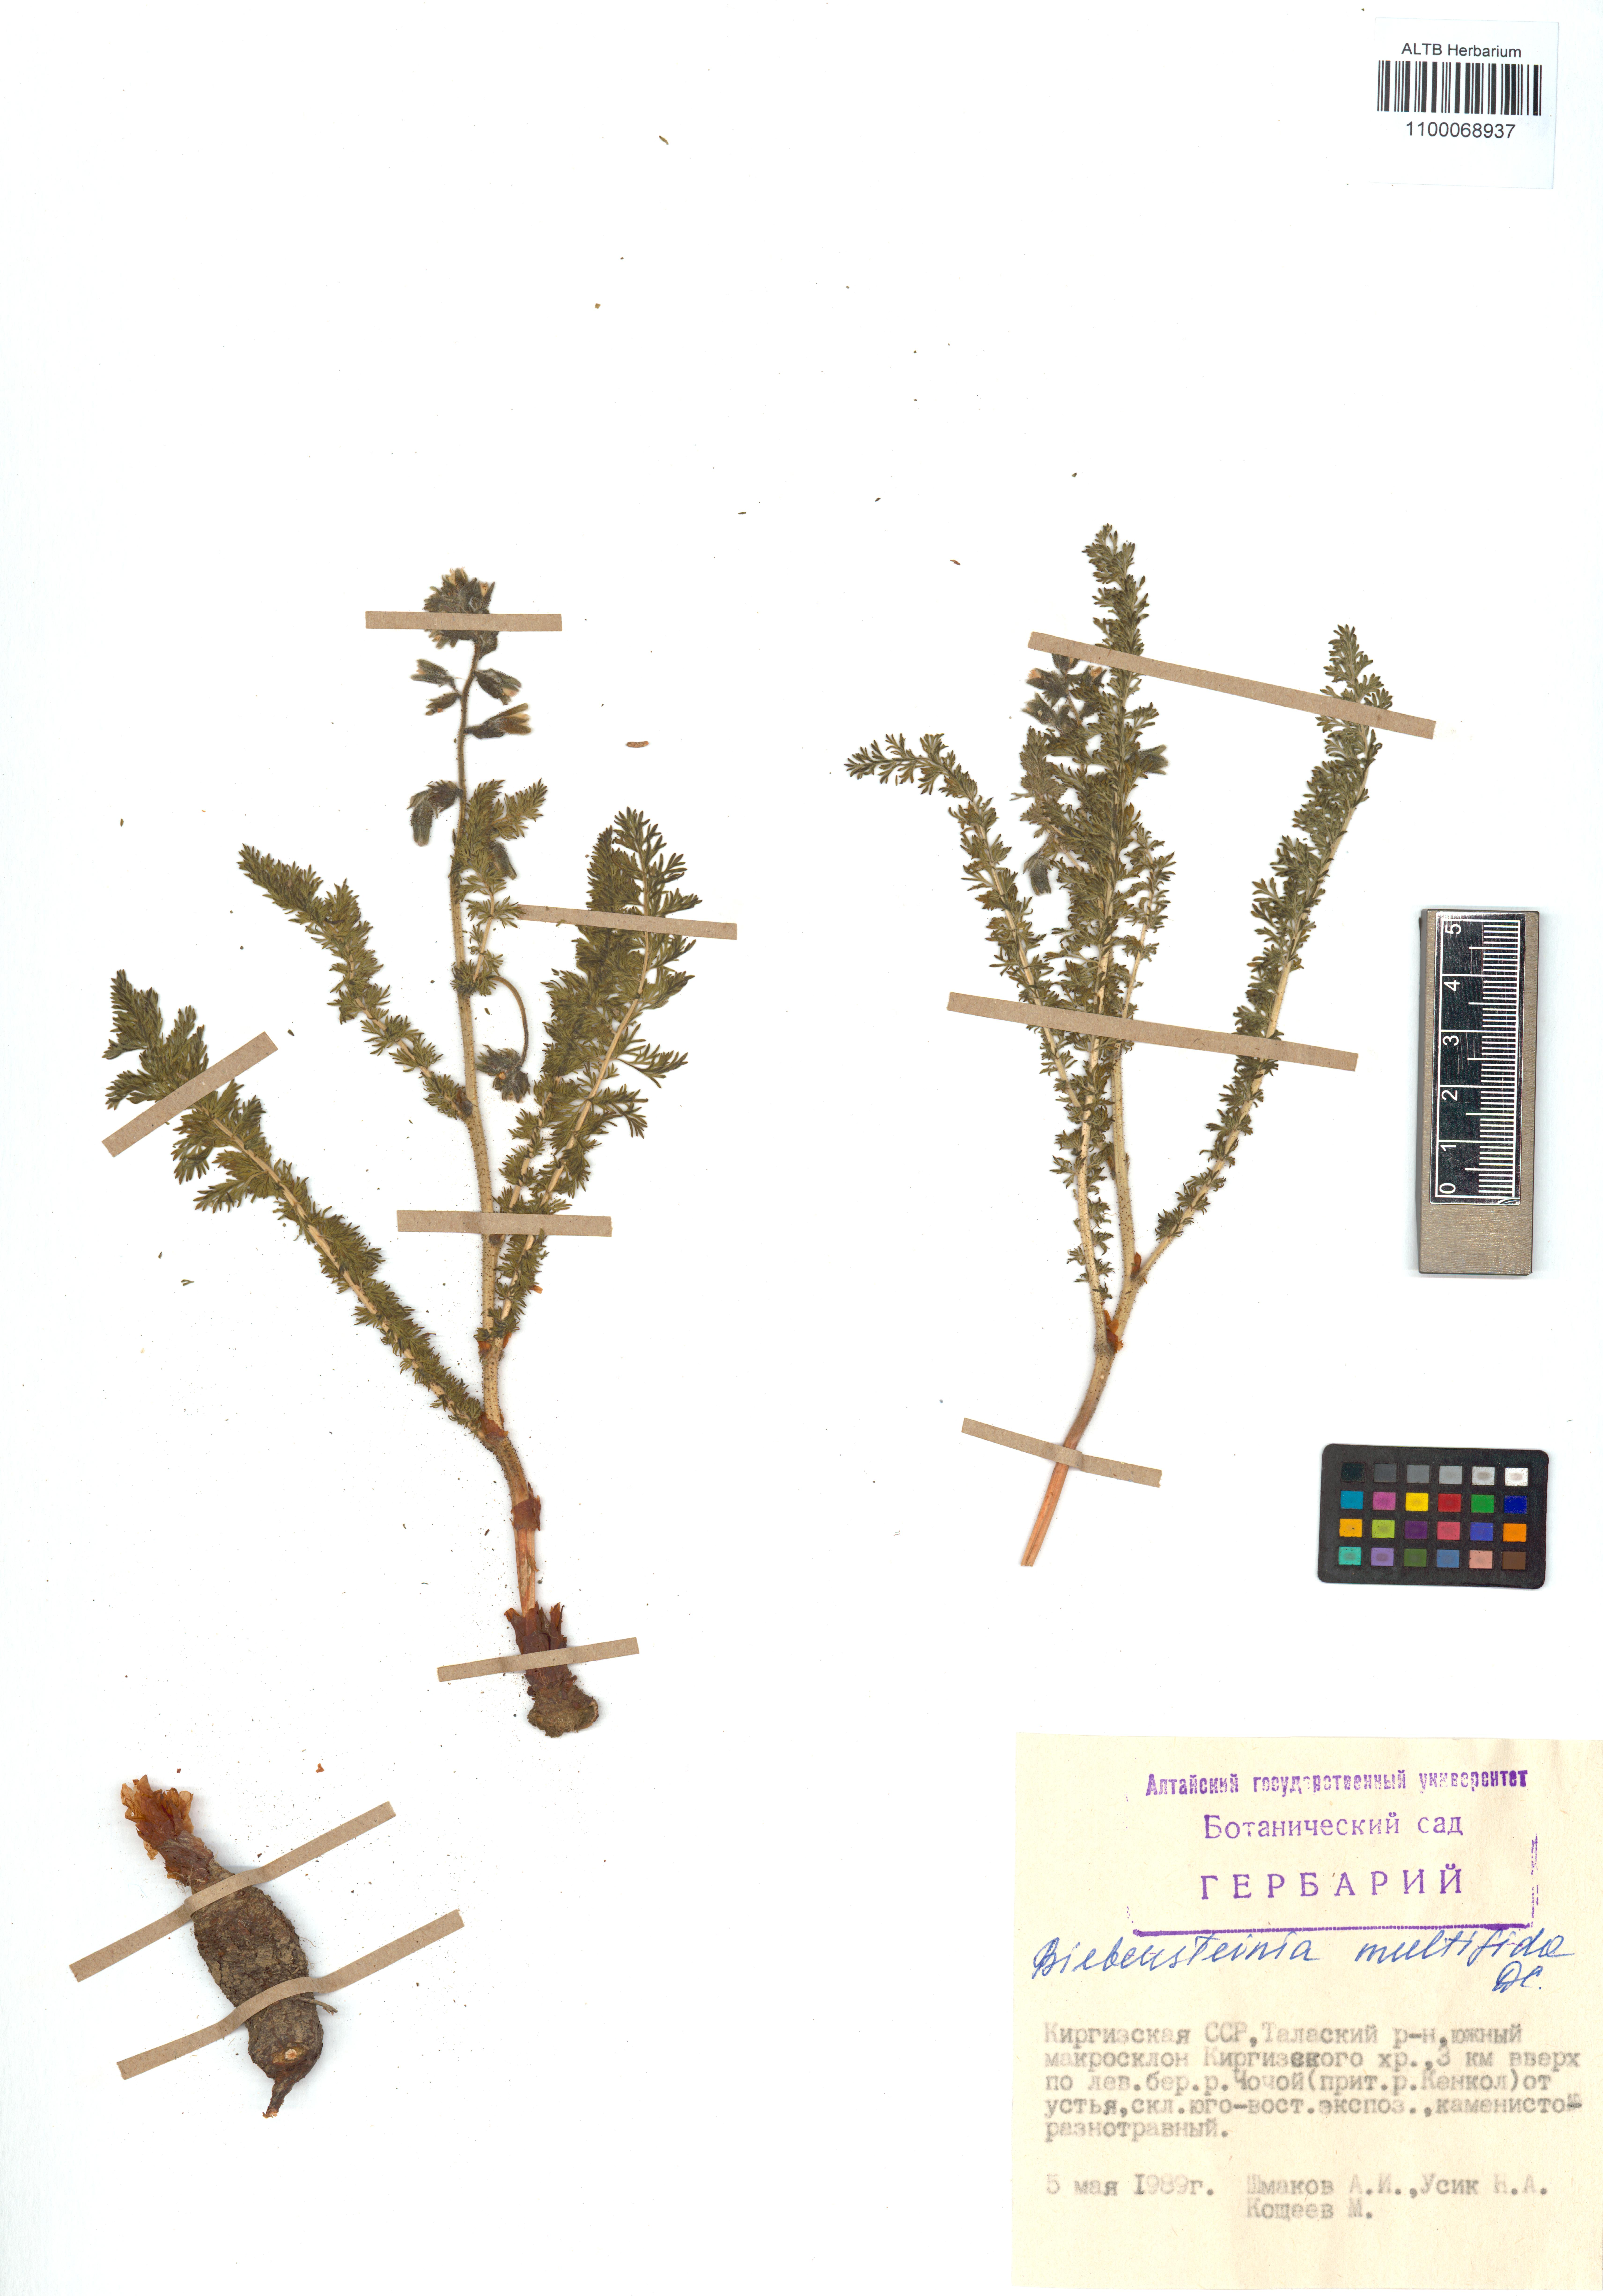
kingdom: Plantae
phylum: Tracheophyta
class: Magnoliopsida
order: Sapindales
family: Biebersteiniaceae
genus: Biebersteinia
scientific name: Biebersteinia multifida
